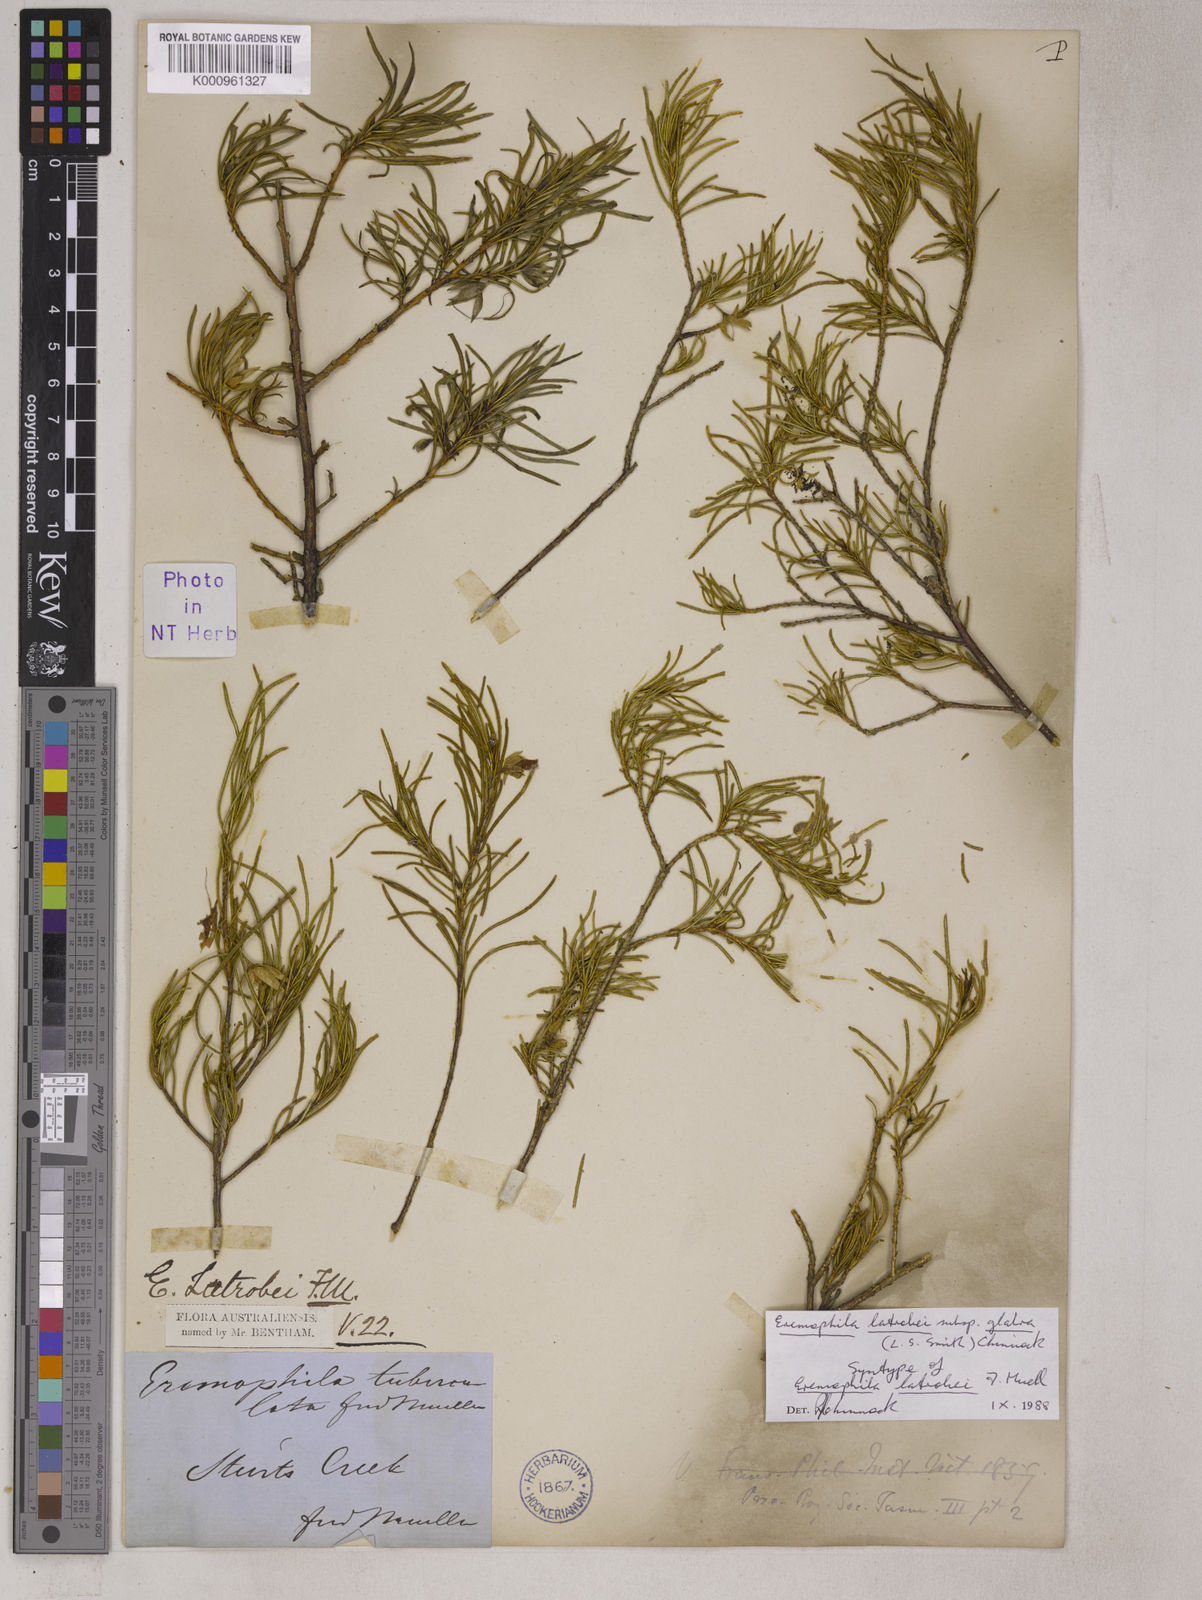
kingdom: Plantae
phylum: Tracheophyta
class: Magnoliopsida
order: Lamiales
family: Scrophulariaceae
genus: Eremophila
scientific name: Eremophila latrobei
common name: Crimson turkeybush
